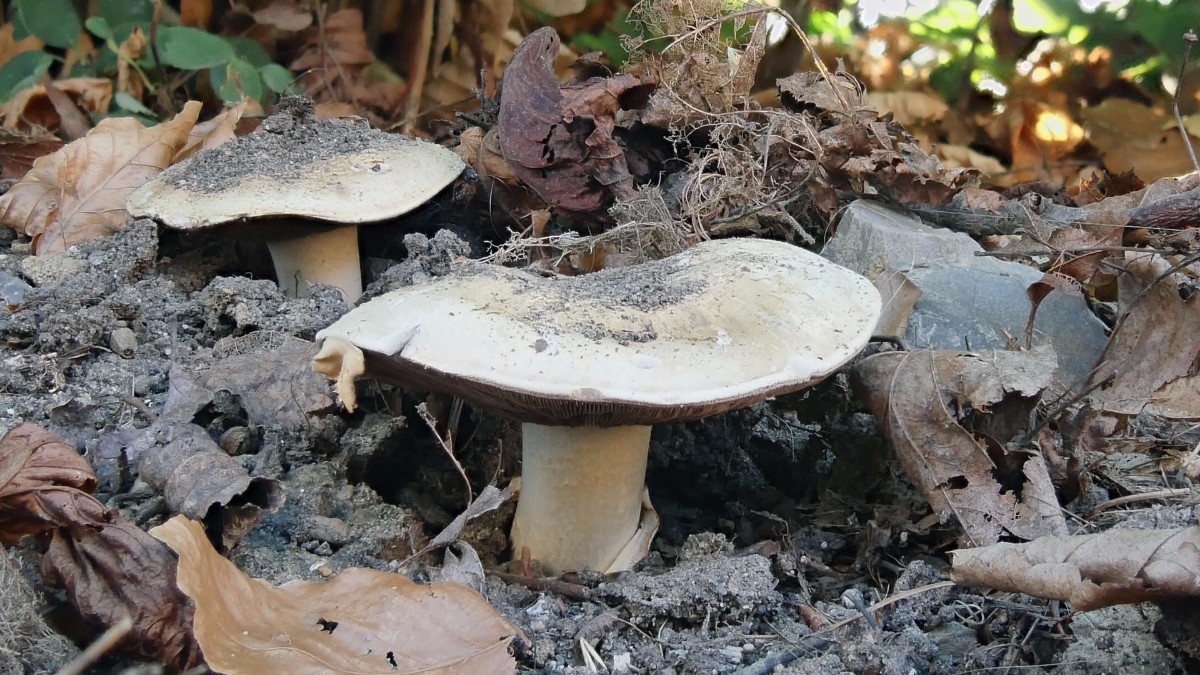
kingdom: Fungi
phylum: Basidiomycota
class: Agaricomycetes
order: Agaricales
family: Agaricaceae
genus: Agaricus
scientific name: Agaricus bitorquis
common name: vej-champignon
